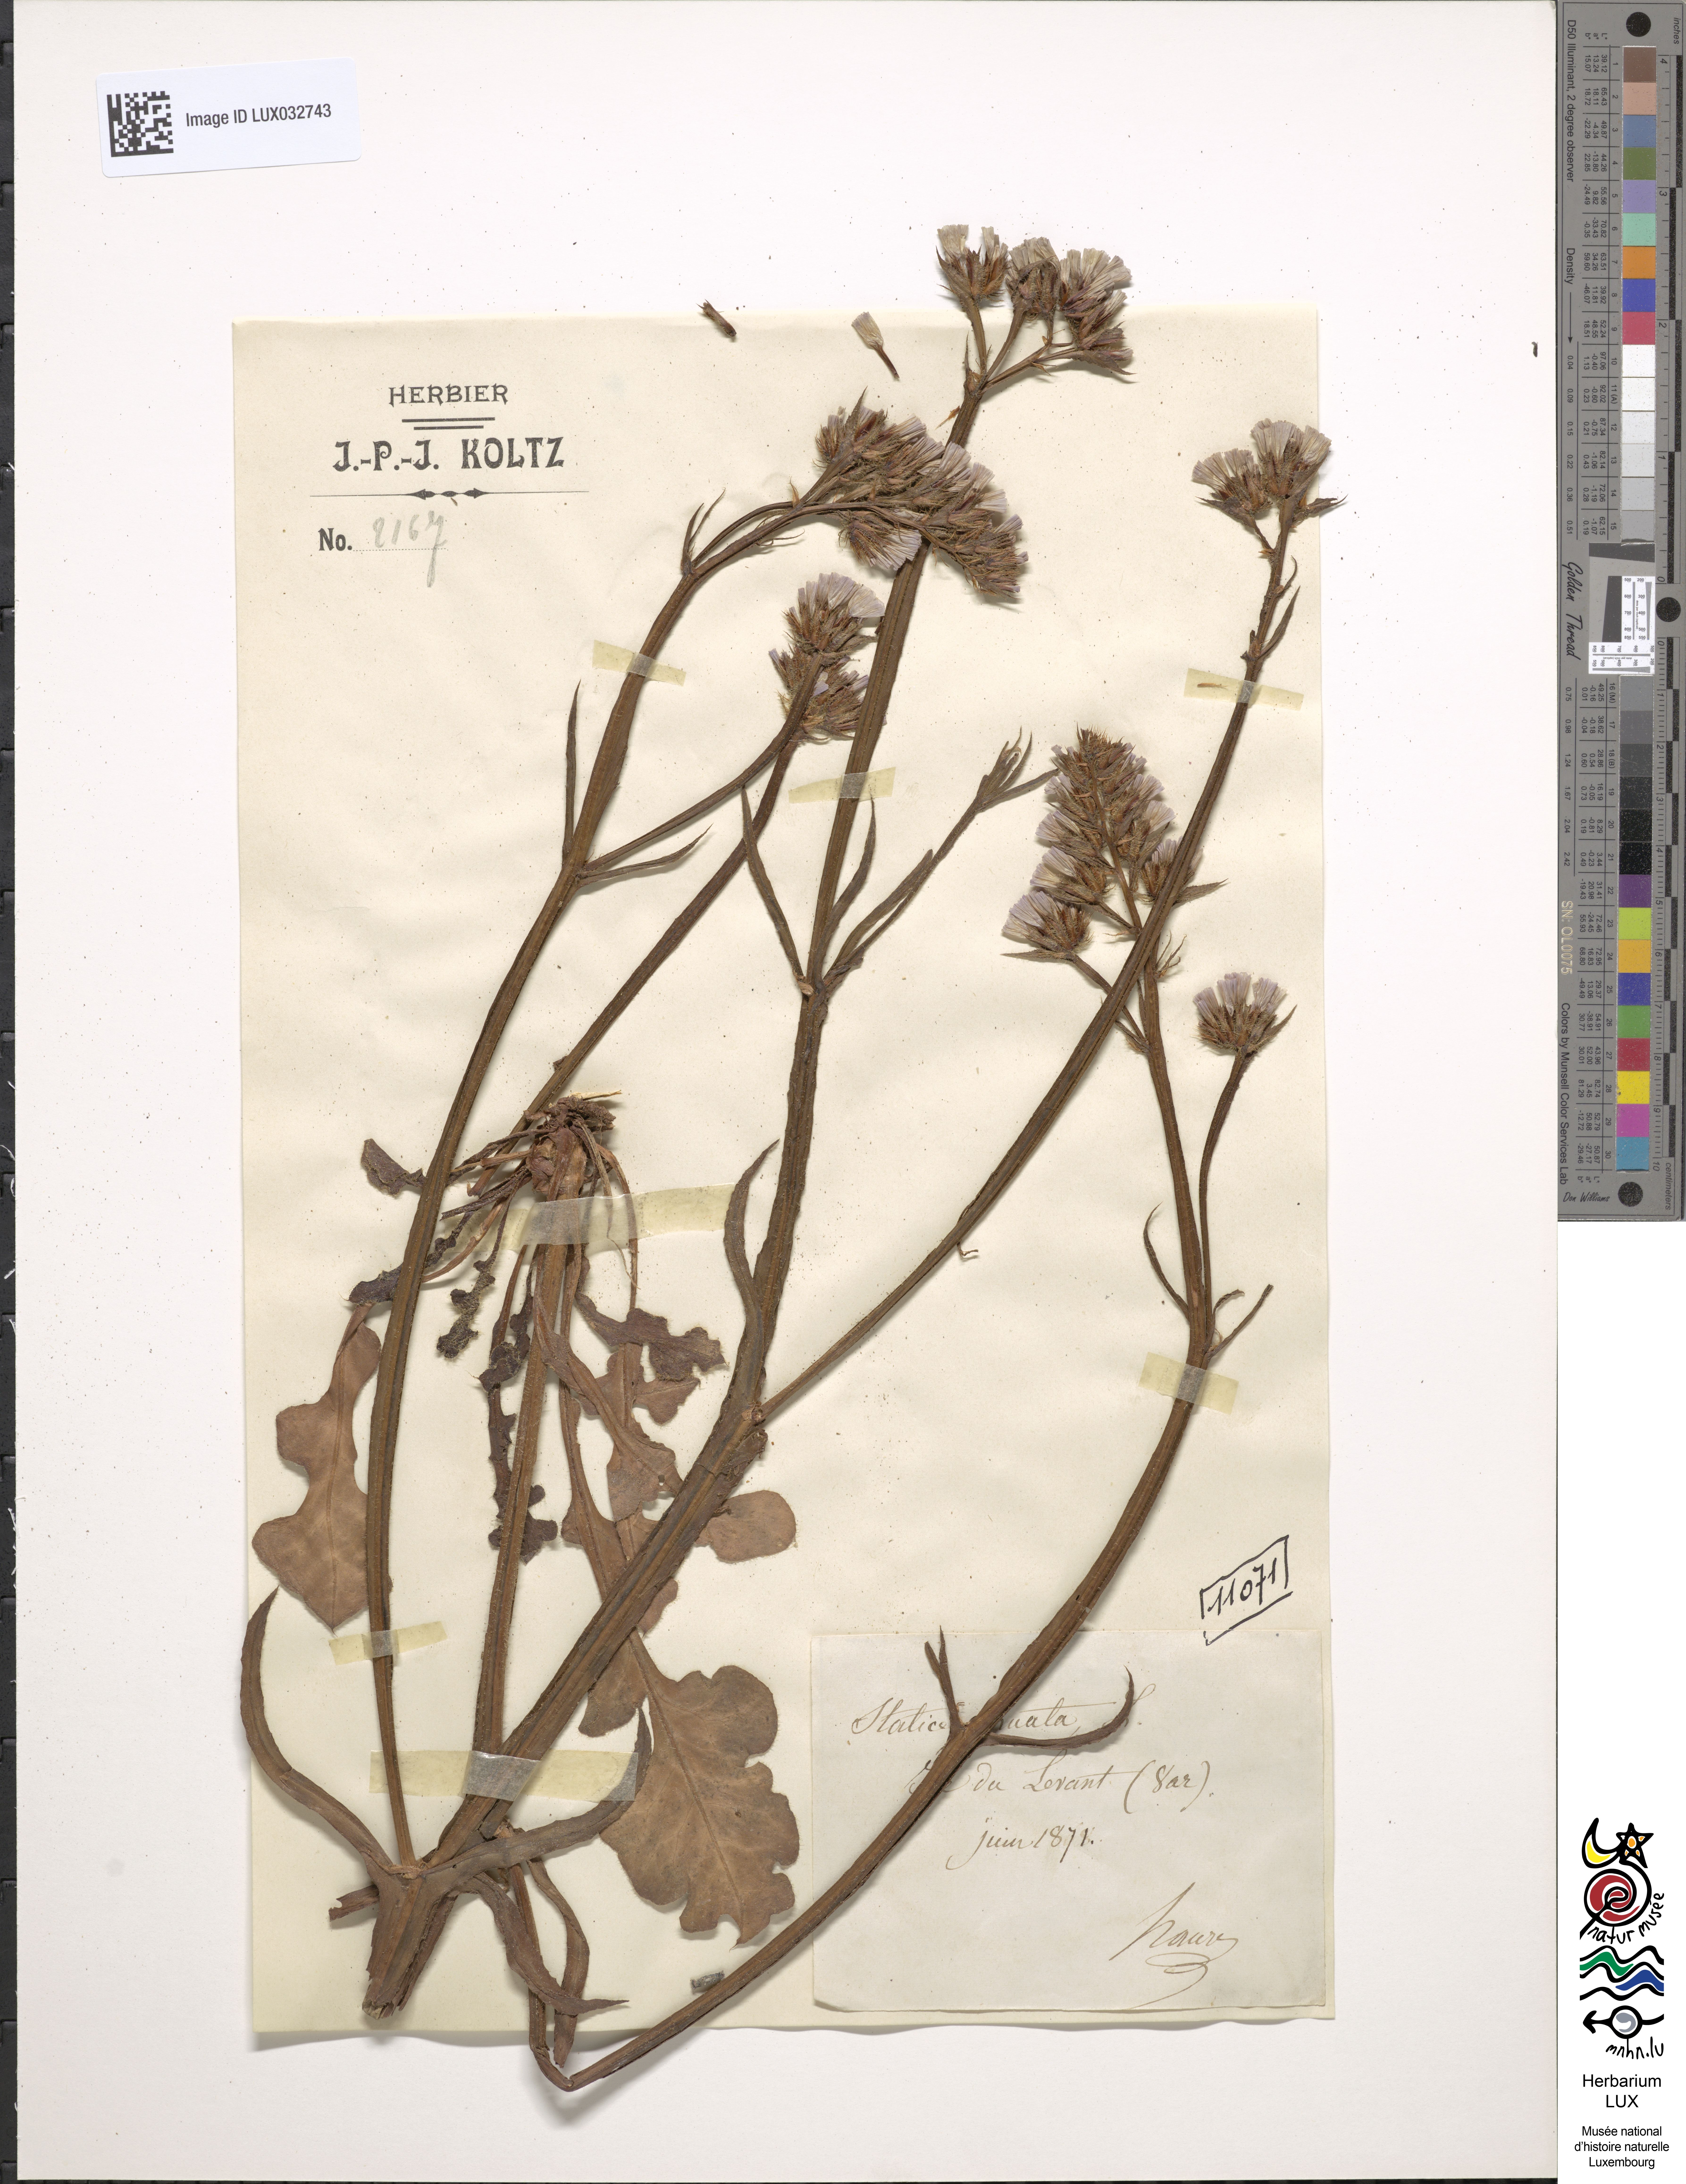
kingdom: Plantae
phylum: Tracheophyta
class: Magnoliopsida
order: Caryophyllales
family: Plumbaginaceae
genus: Limonium
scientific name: Limonium sinuatum
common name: Statice
